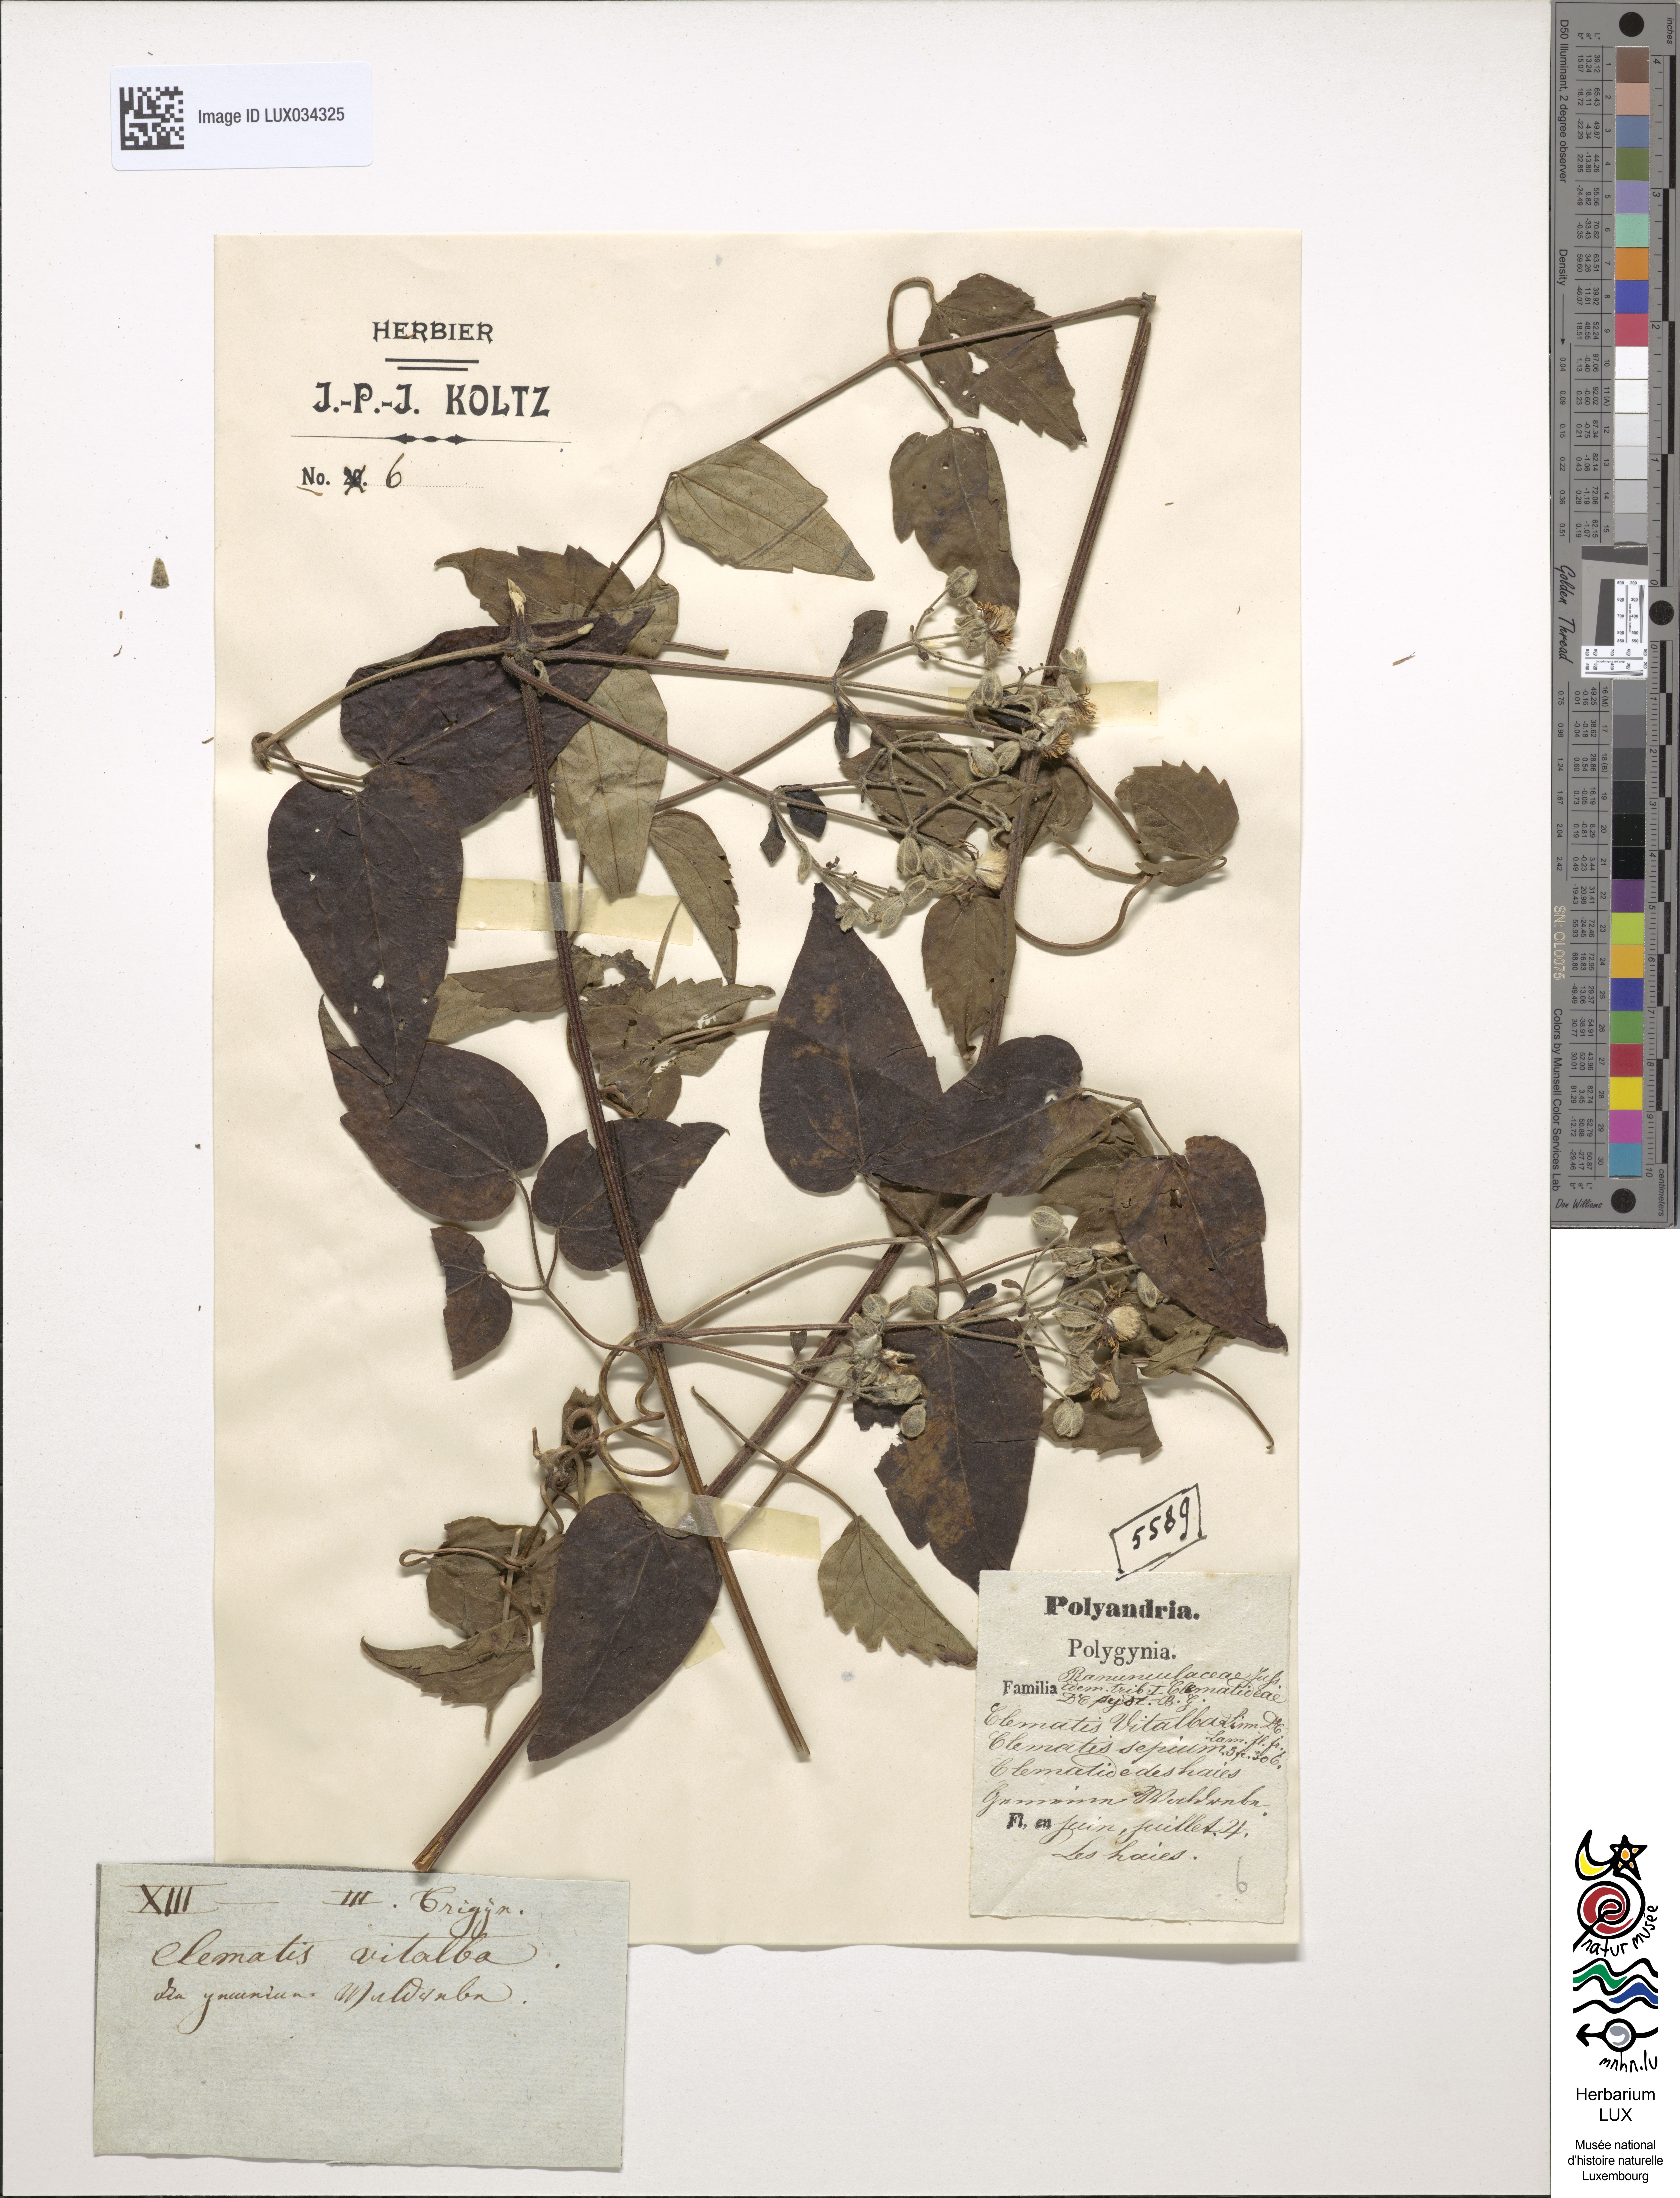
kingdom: Plantae
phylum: Tracheophyta
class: Magnoliopsida
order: Ranunculales
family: Ranunculaceae
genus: Clematis
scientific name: Clematis vitalba
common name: Evergreen clematis
